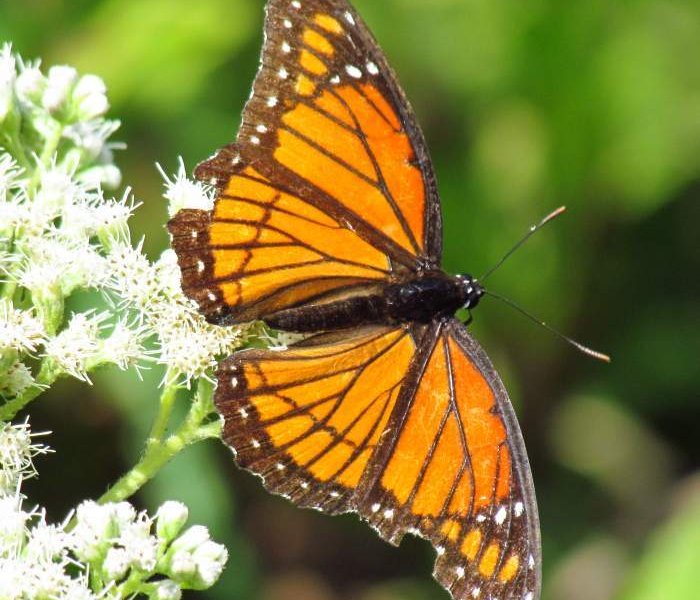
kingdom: Animalia
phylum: Arthropoda
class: Insecta
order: Lepidoptera
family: Nymphalidae
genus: Limenitis
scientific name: Limenitis archippus
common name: Viceroy
